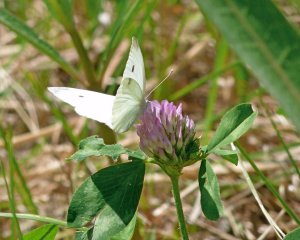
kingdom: Animalia
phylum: Arthropoda
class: Insecta
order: Lepidoptera
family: Pieridae
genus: Pieris
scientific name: Pieris rapae
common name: Cabbage White
